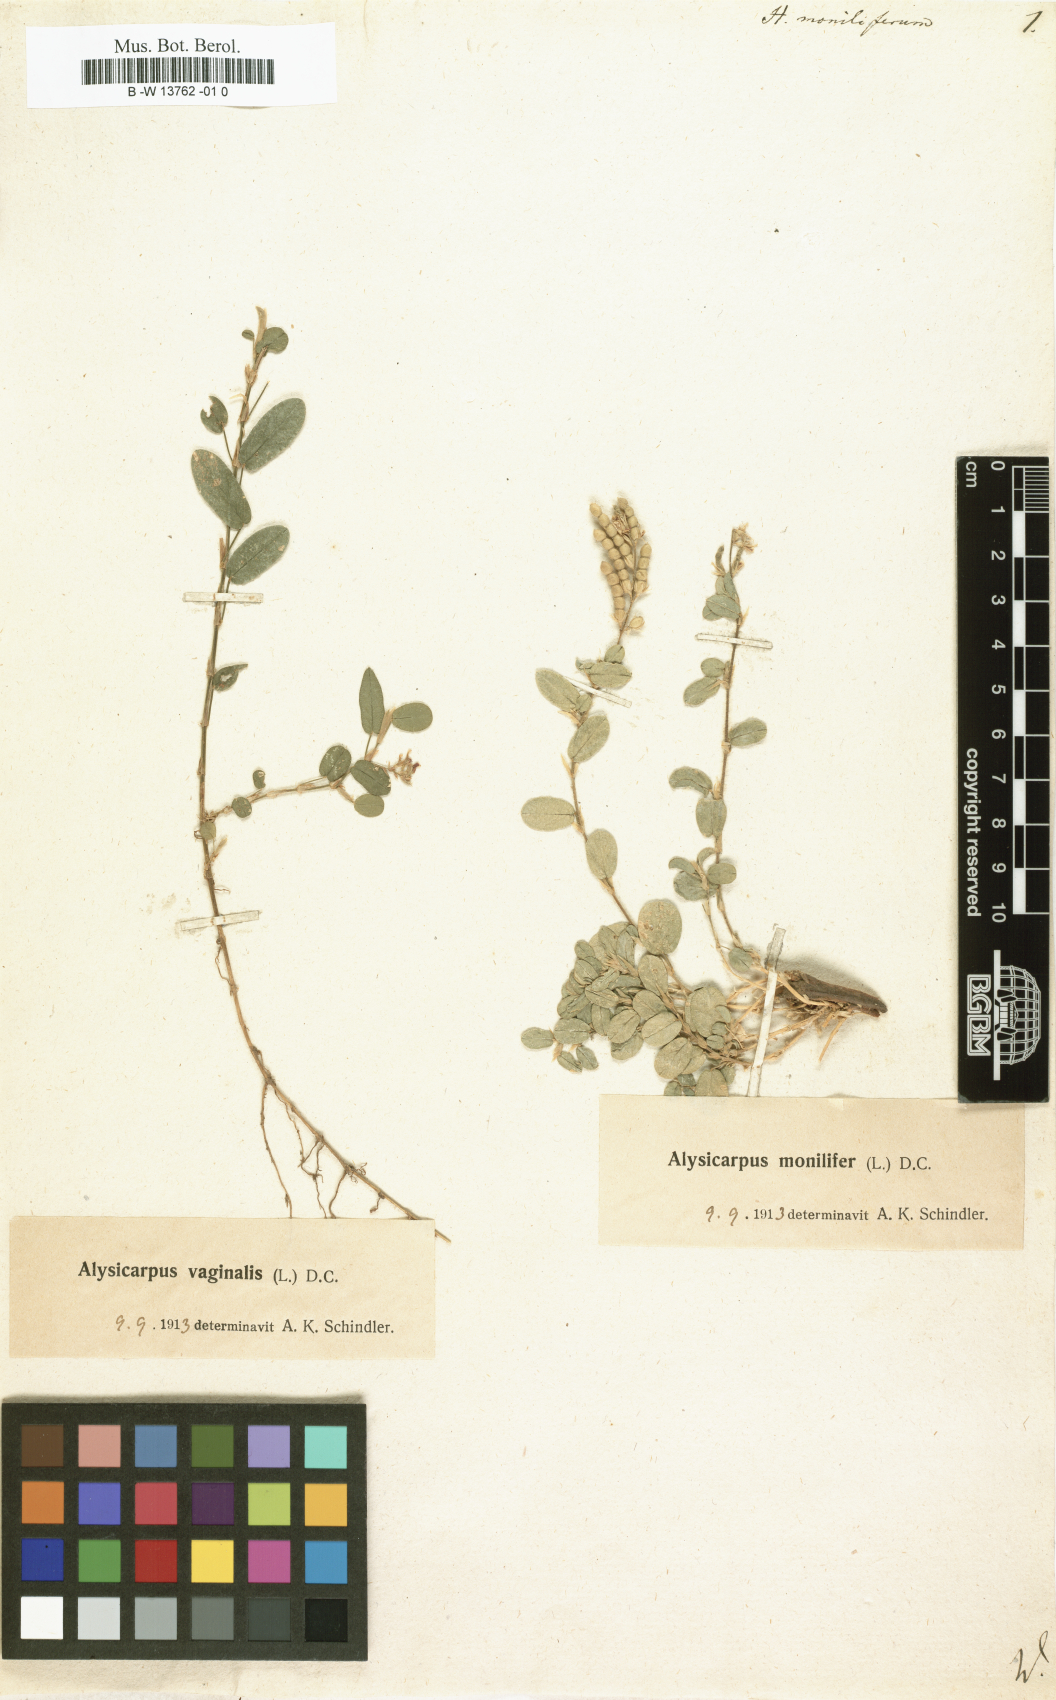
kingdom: Plantae
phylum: Tracheophyta
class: Magnoliopsida
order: Fabales
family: Fabaceae
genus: Alysicarpus
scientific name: Alysicarpus monilifer
